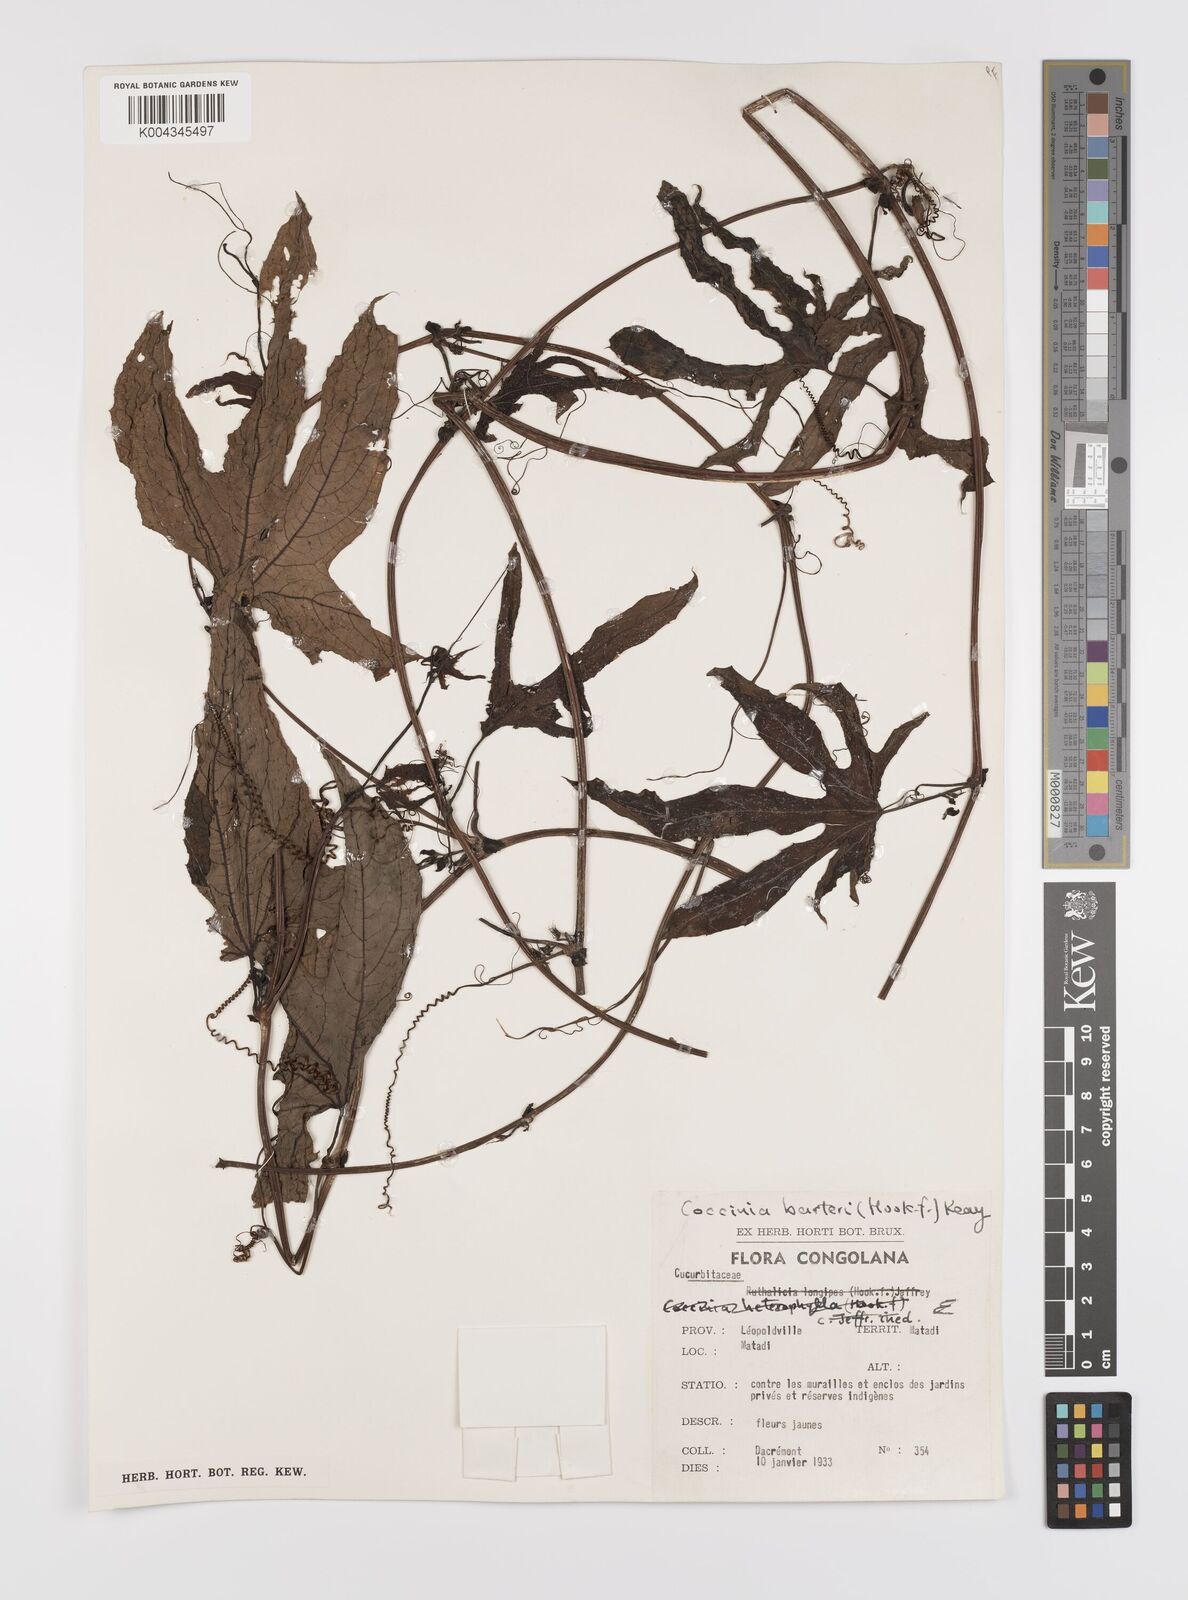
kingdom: Plantae
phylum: Tracheophyta
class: Magnoliopsida
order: Cucurbitales
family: Cucurbitaceae
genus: Coccinia
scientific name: Coccinia barteri
